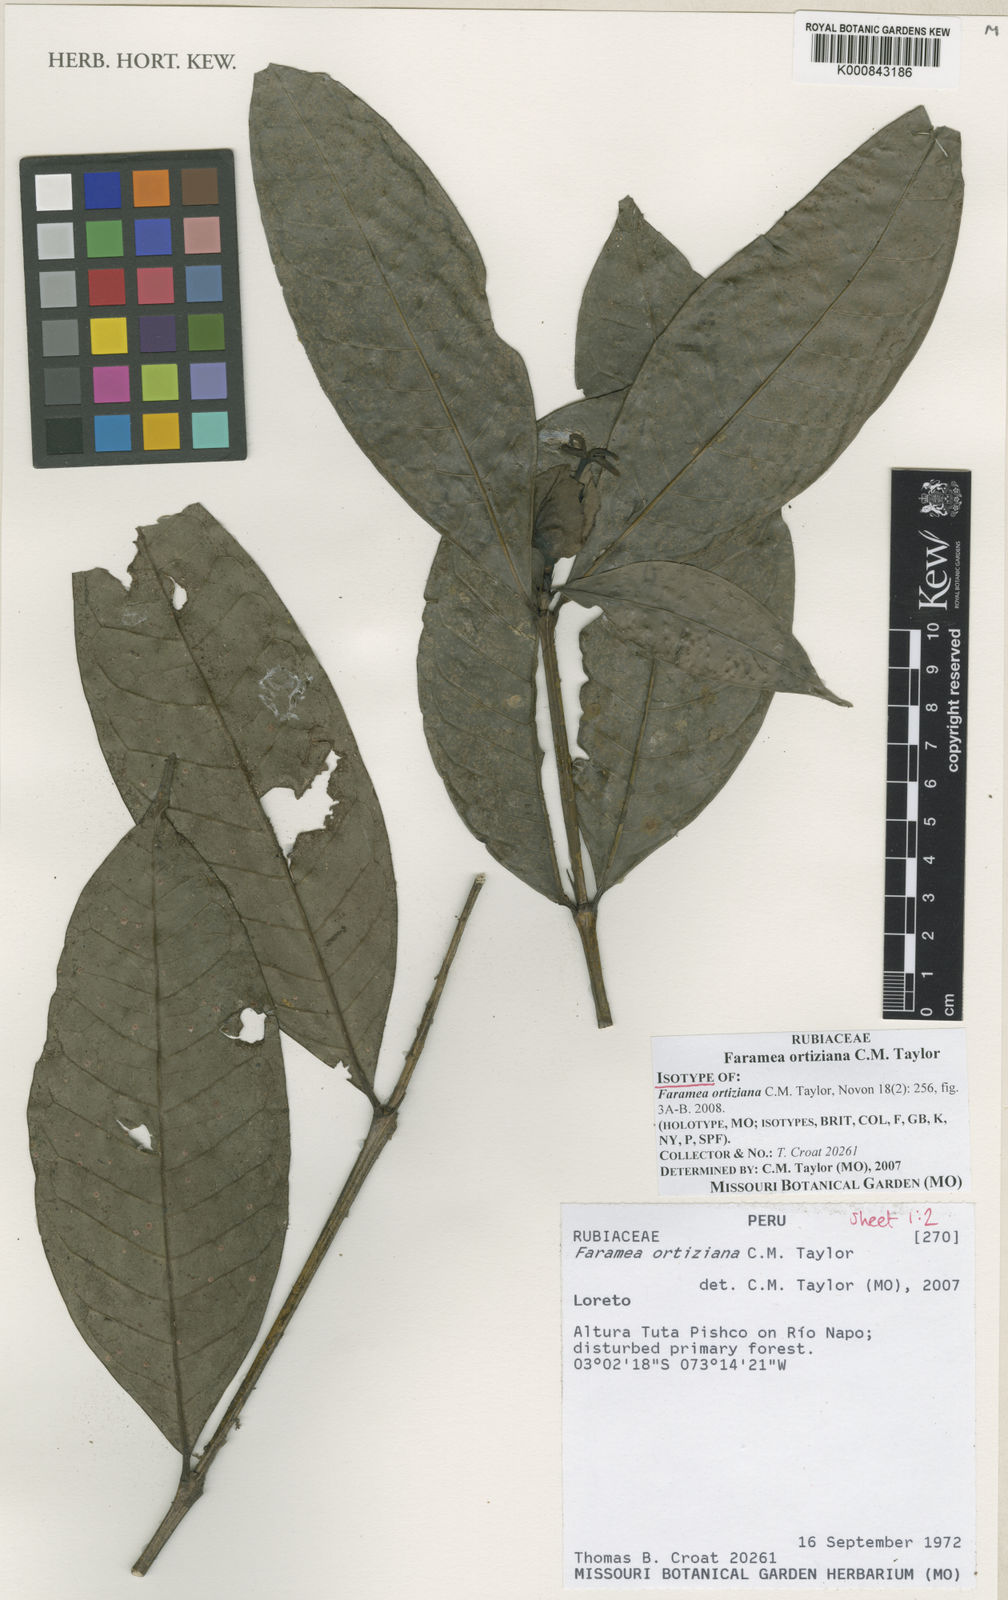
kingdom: Plantae
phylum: Tracheophyta
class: Magnoliopsida
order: Gentianales
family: Rubiaceae
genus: Faramea
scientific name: Faramea ortiziana
